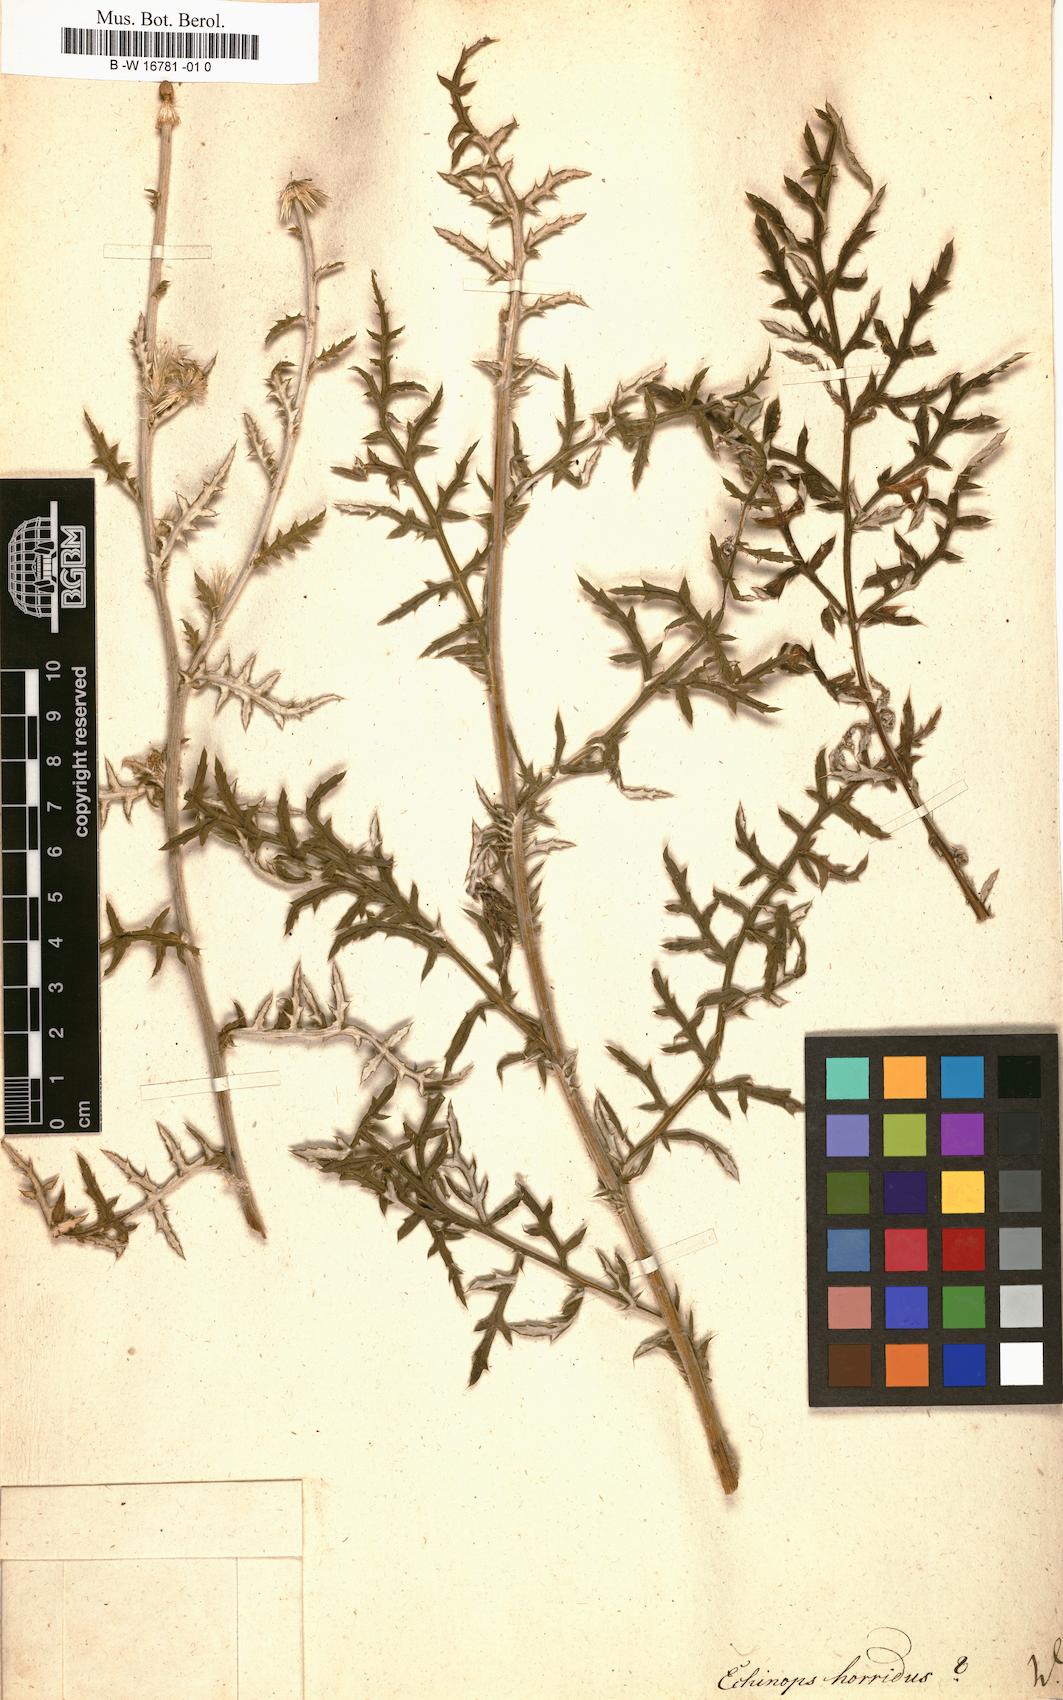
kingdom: Plantae
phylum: Tracheophyta
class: Magnoliopsida
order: Asterales
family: Asteraceae
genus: Echinops
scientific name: Echinops
